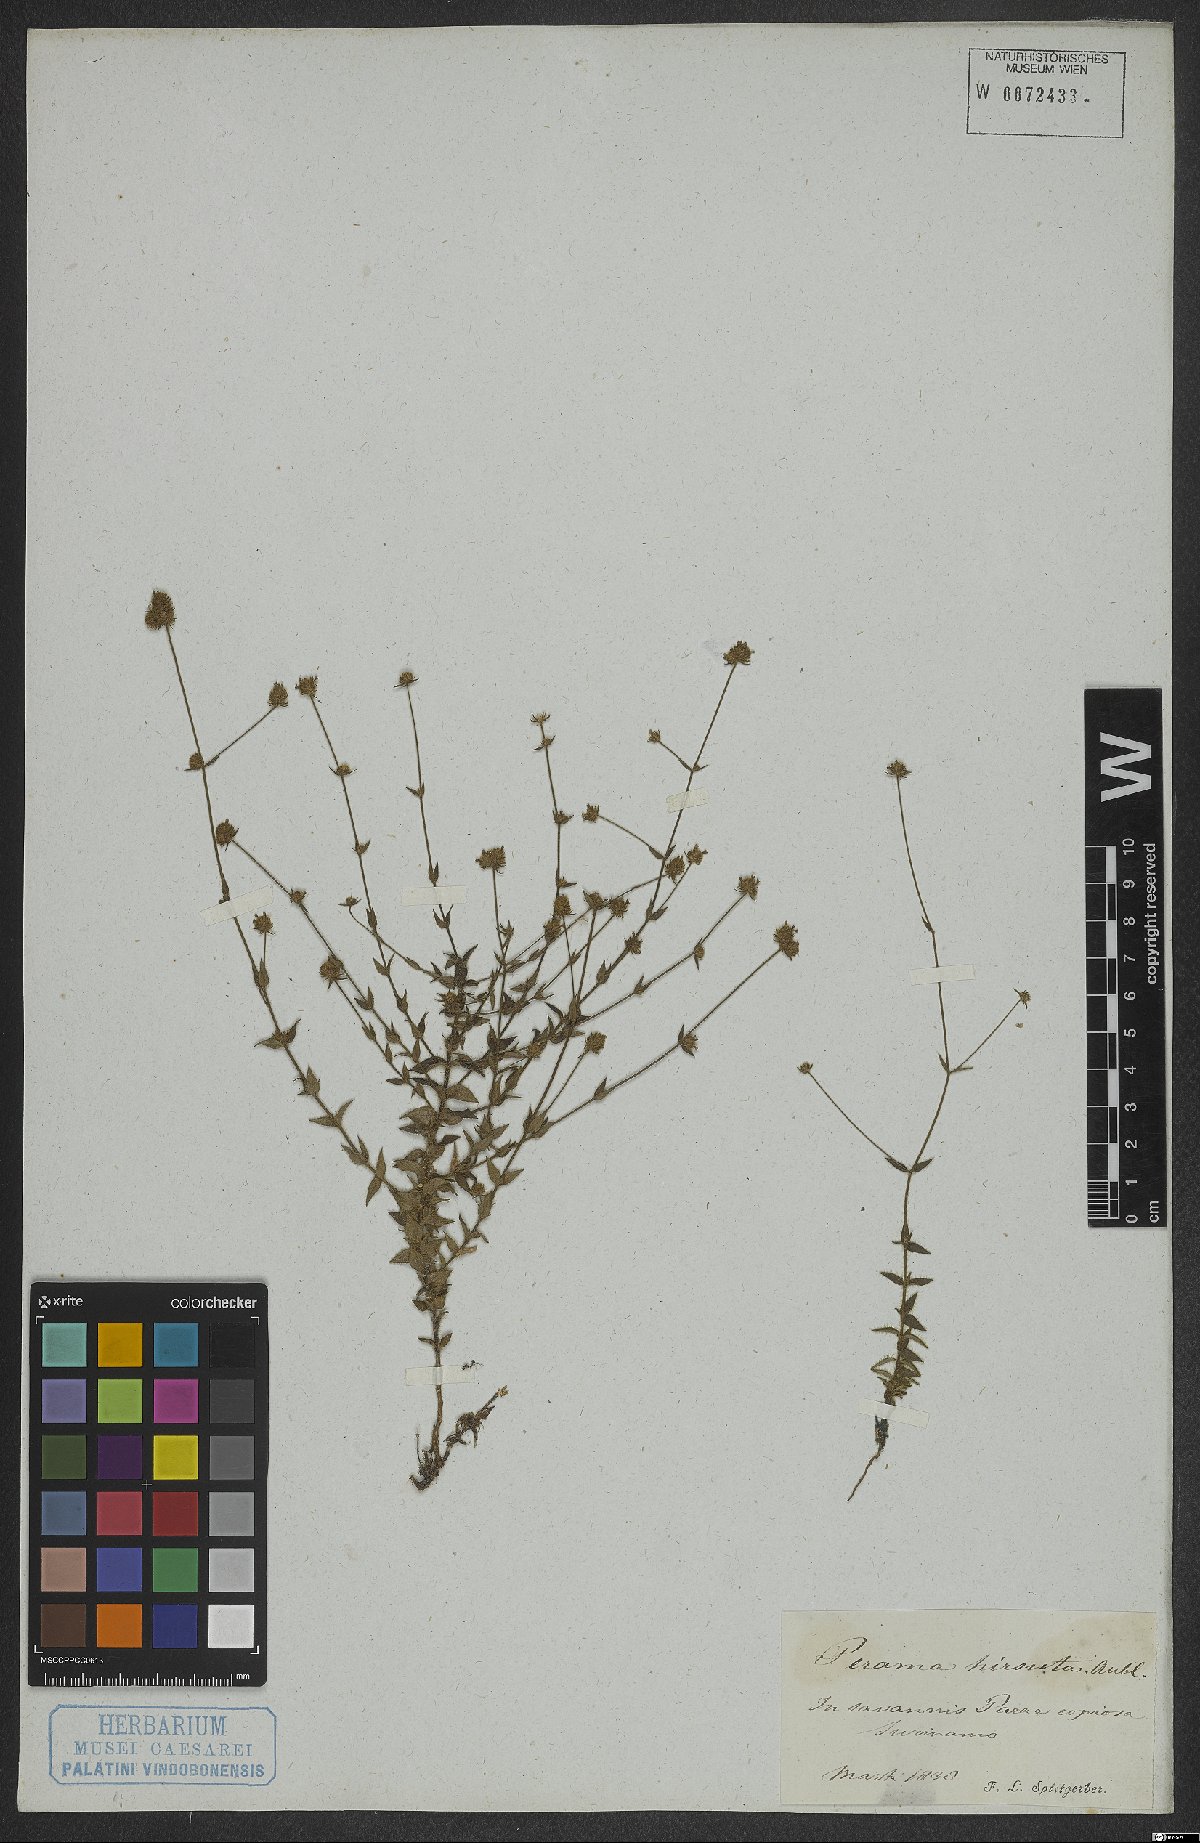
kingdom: Plantae
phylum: Tracheophyta
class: Magnoliopsida
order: Gentianales
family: Rubiaceae
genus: Perama
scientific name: Perama hirsuta
